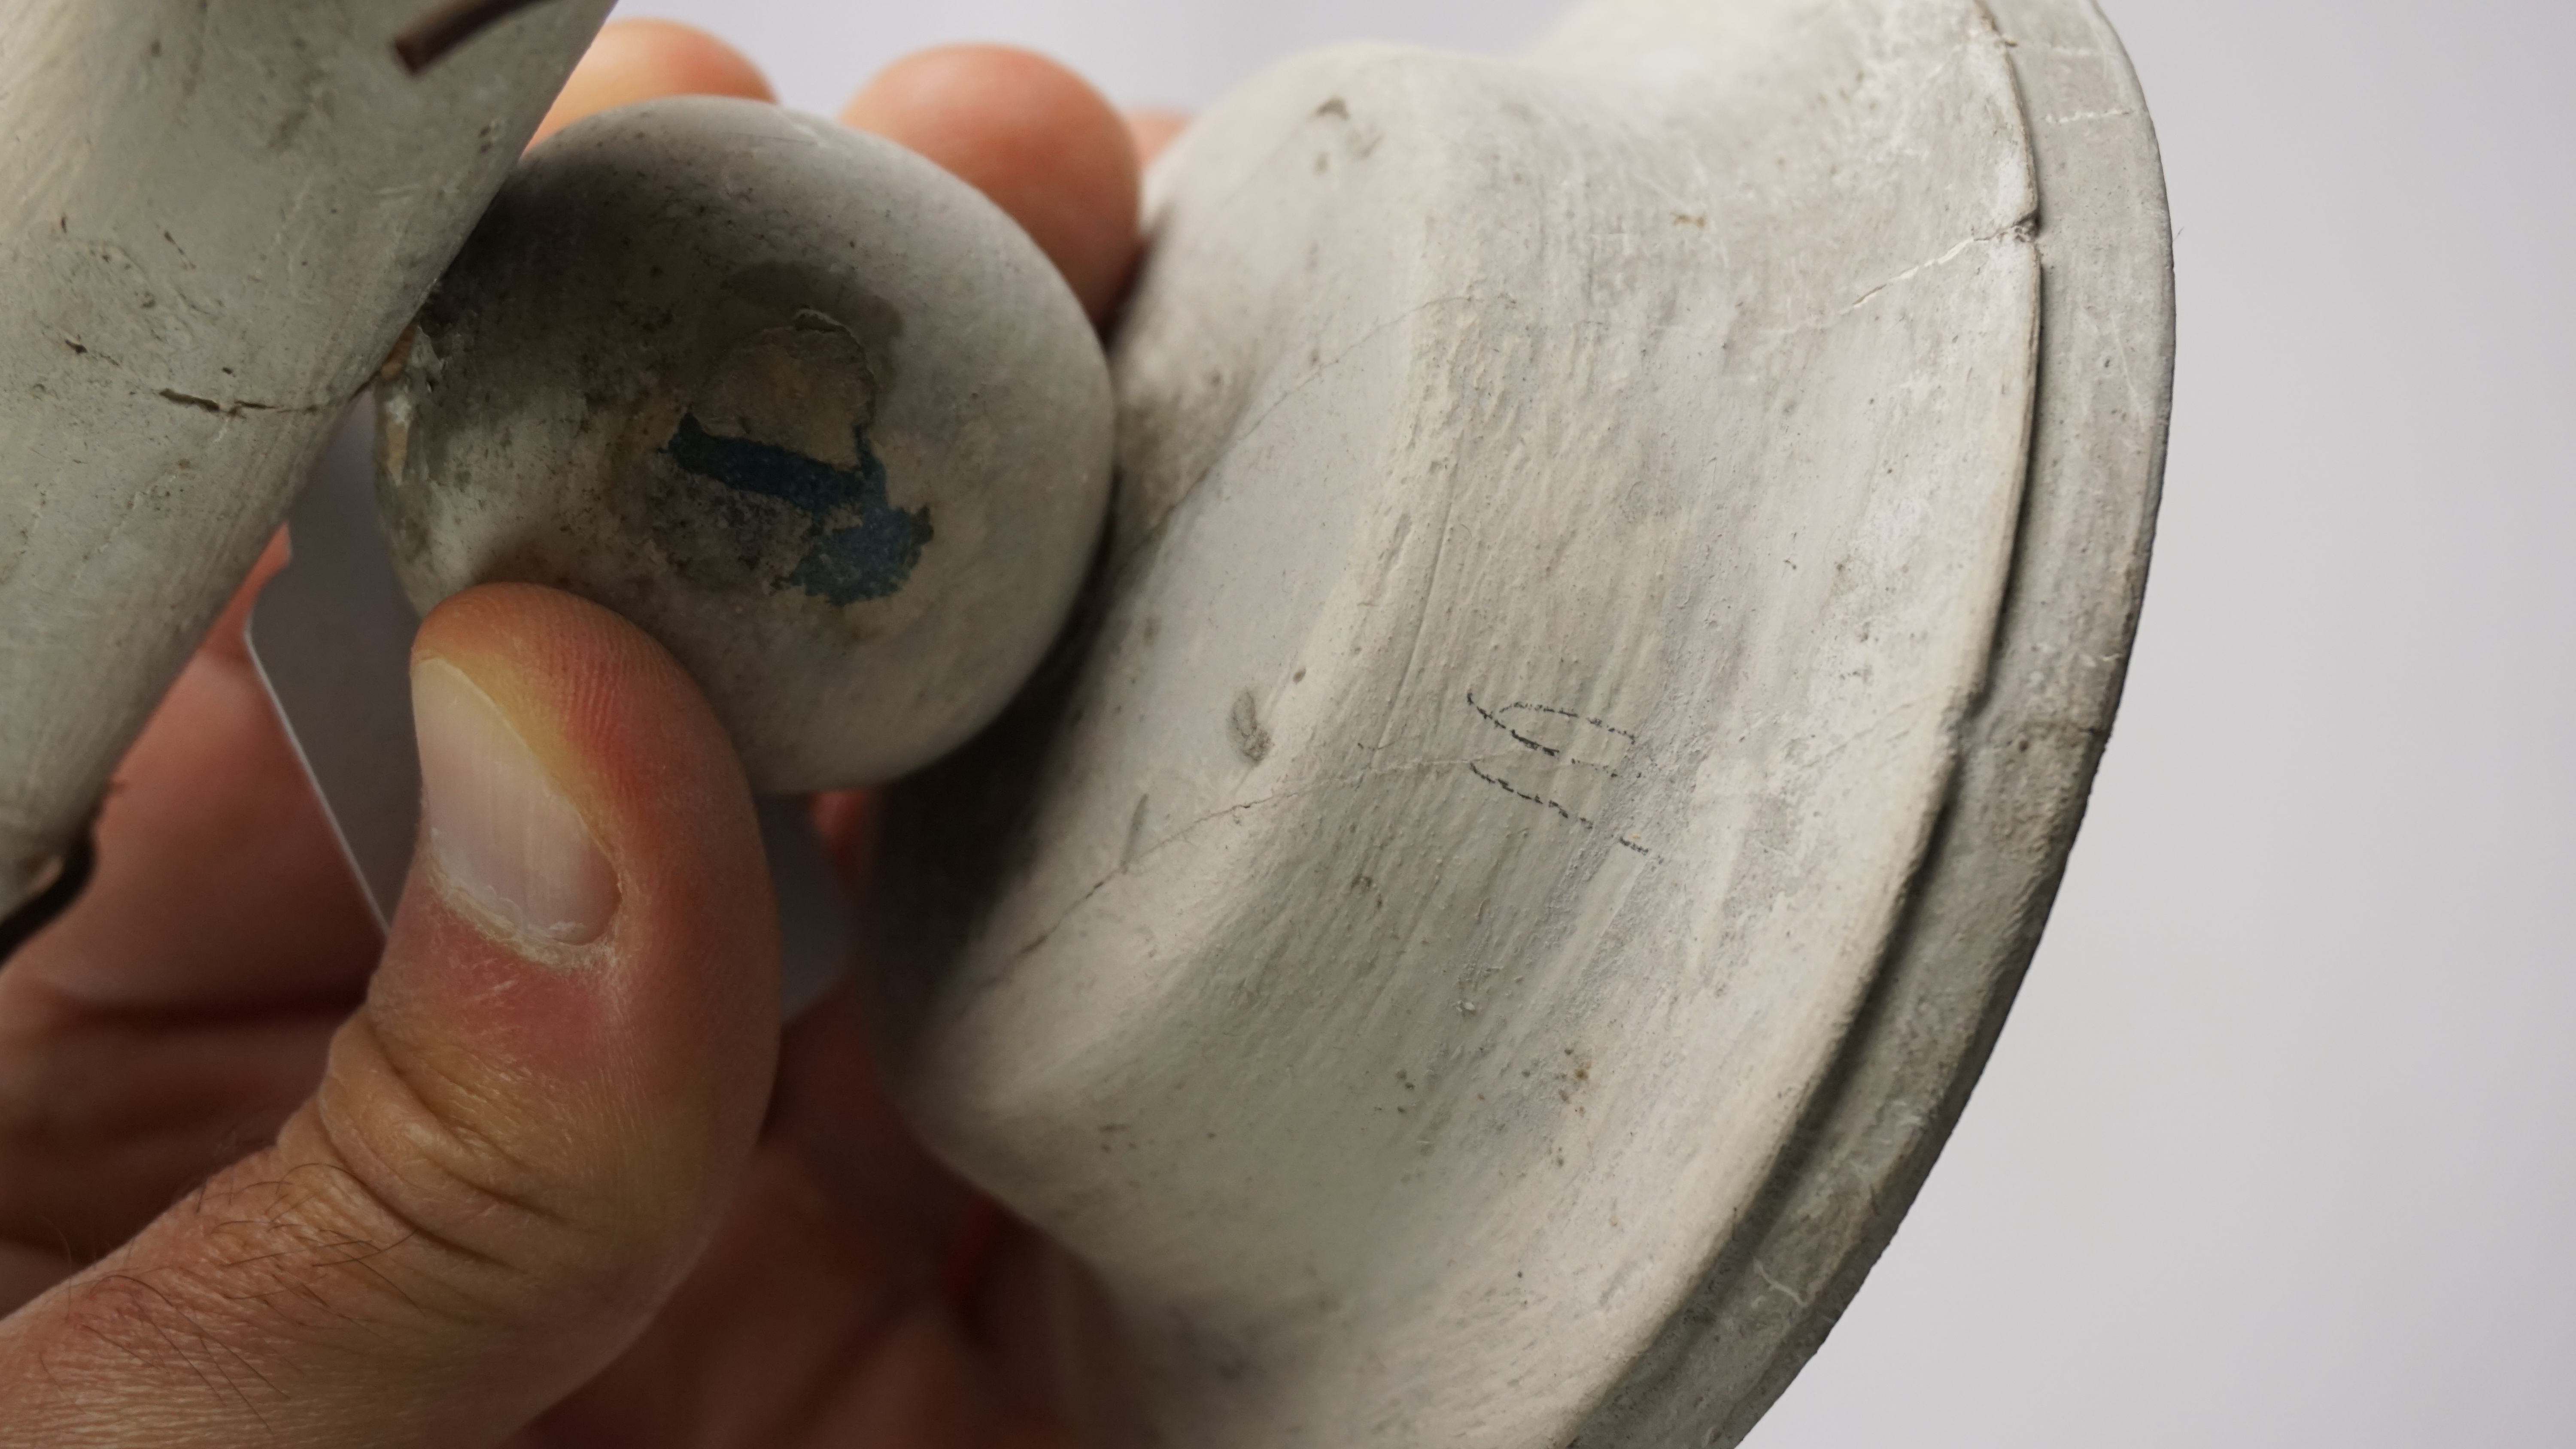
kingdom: Animalia
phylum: Chordata
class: Aves
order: Strigiformes
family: Tytonidae
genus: Tyto
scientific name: Tyto alba
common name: Barn owl
